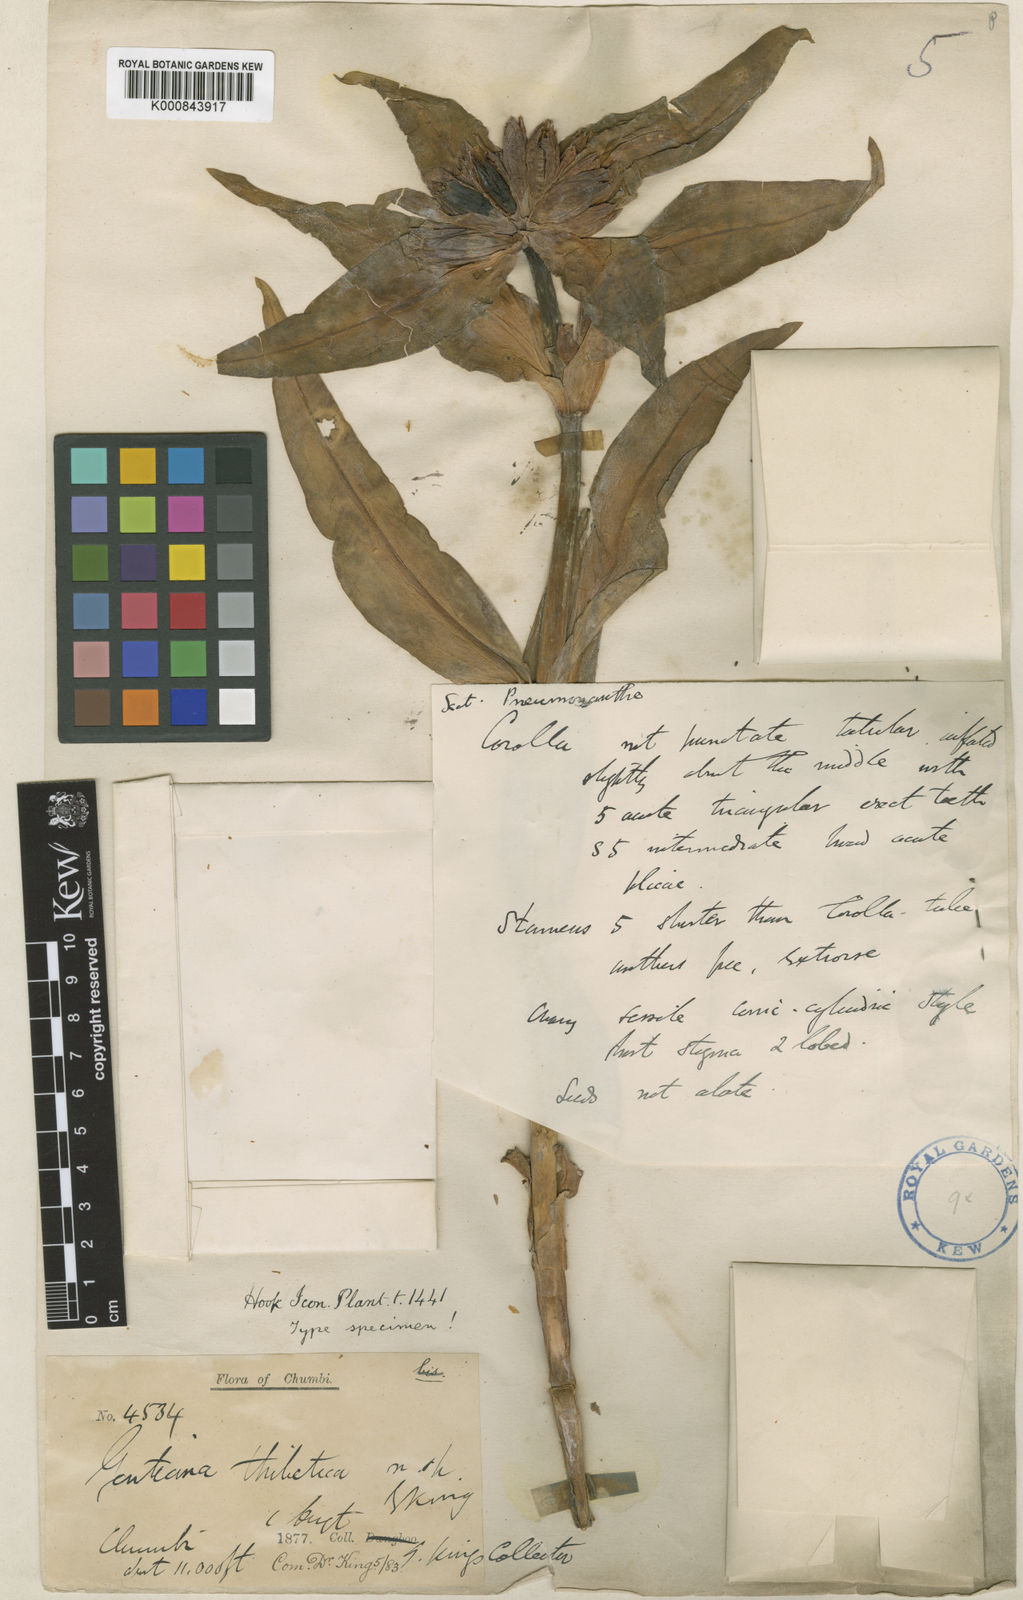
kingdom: Plantae
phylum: Tracheophyta
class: Magnoliopsida
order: Gentianales
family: Gentianaceae
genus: Gentiana
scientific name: Gentiana tibetica
